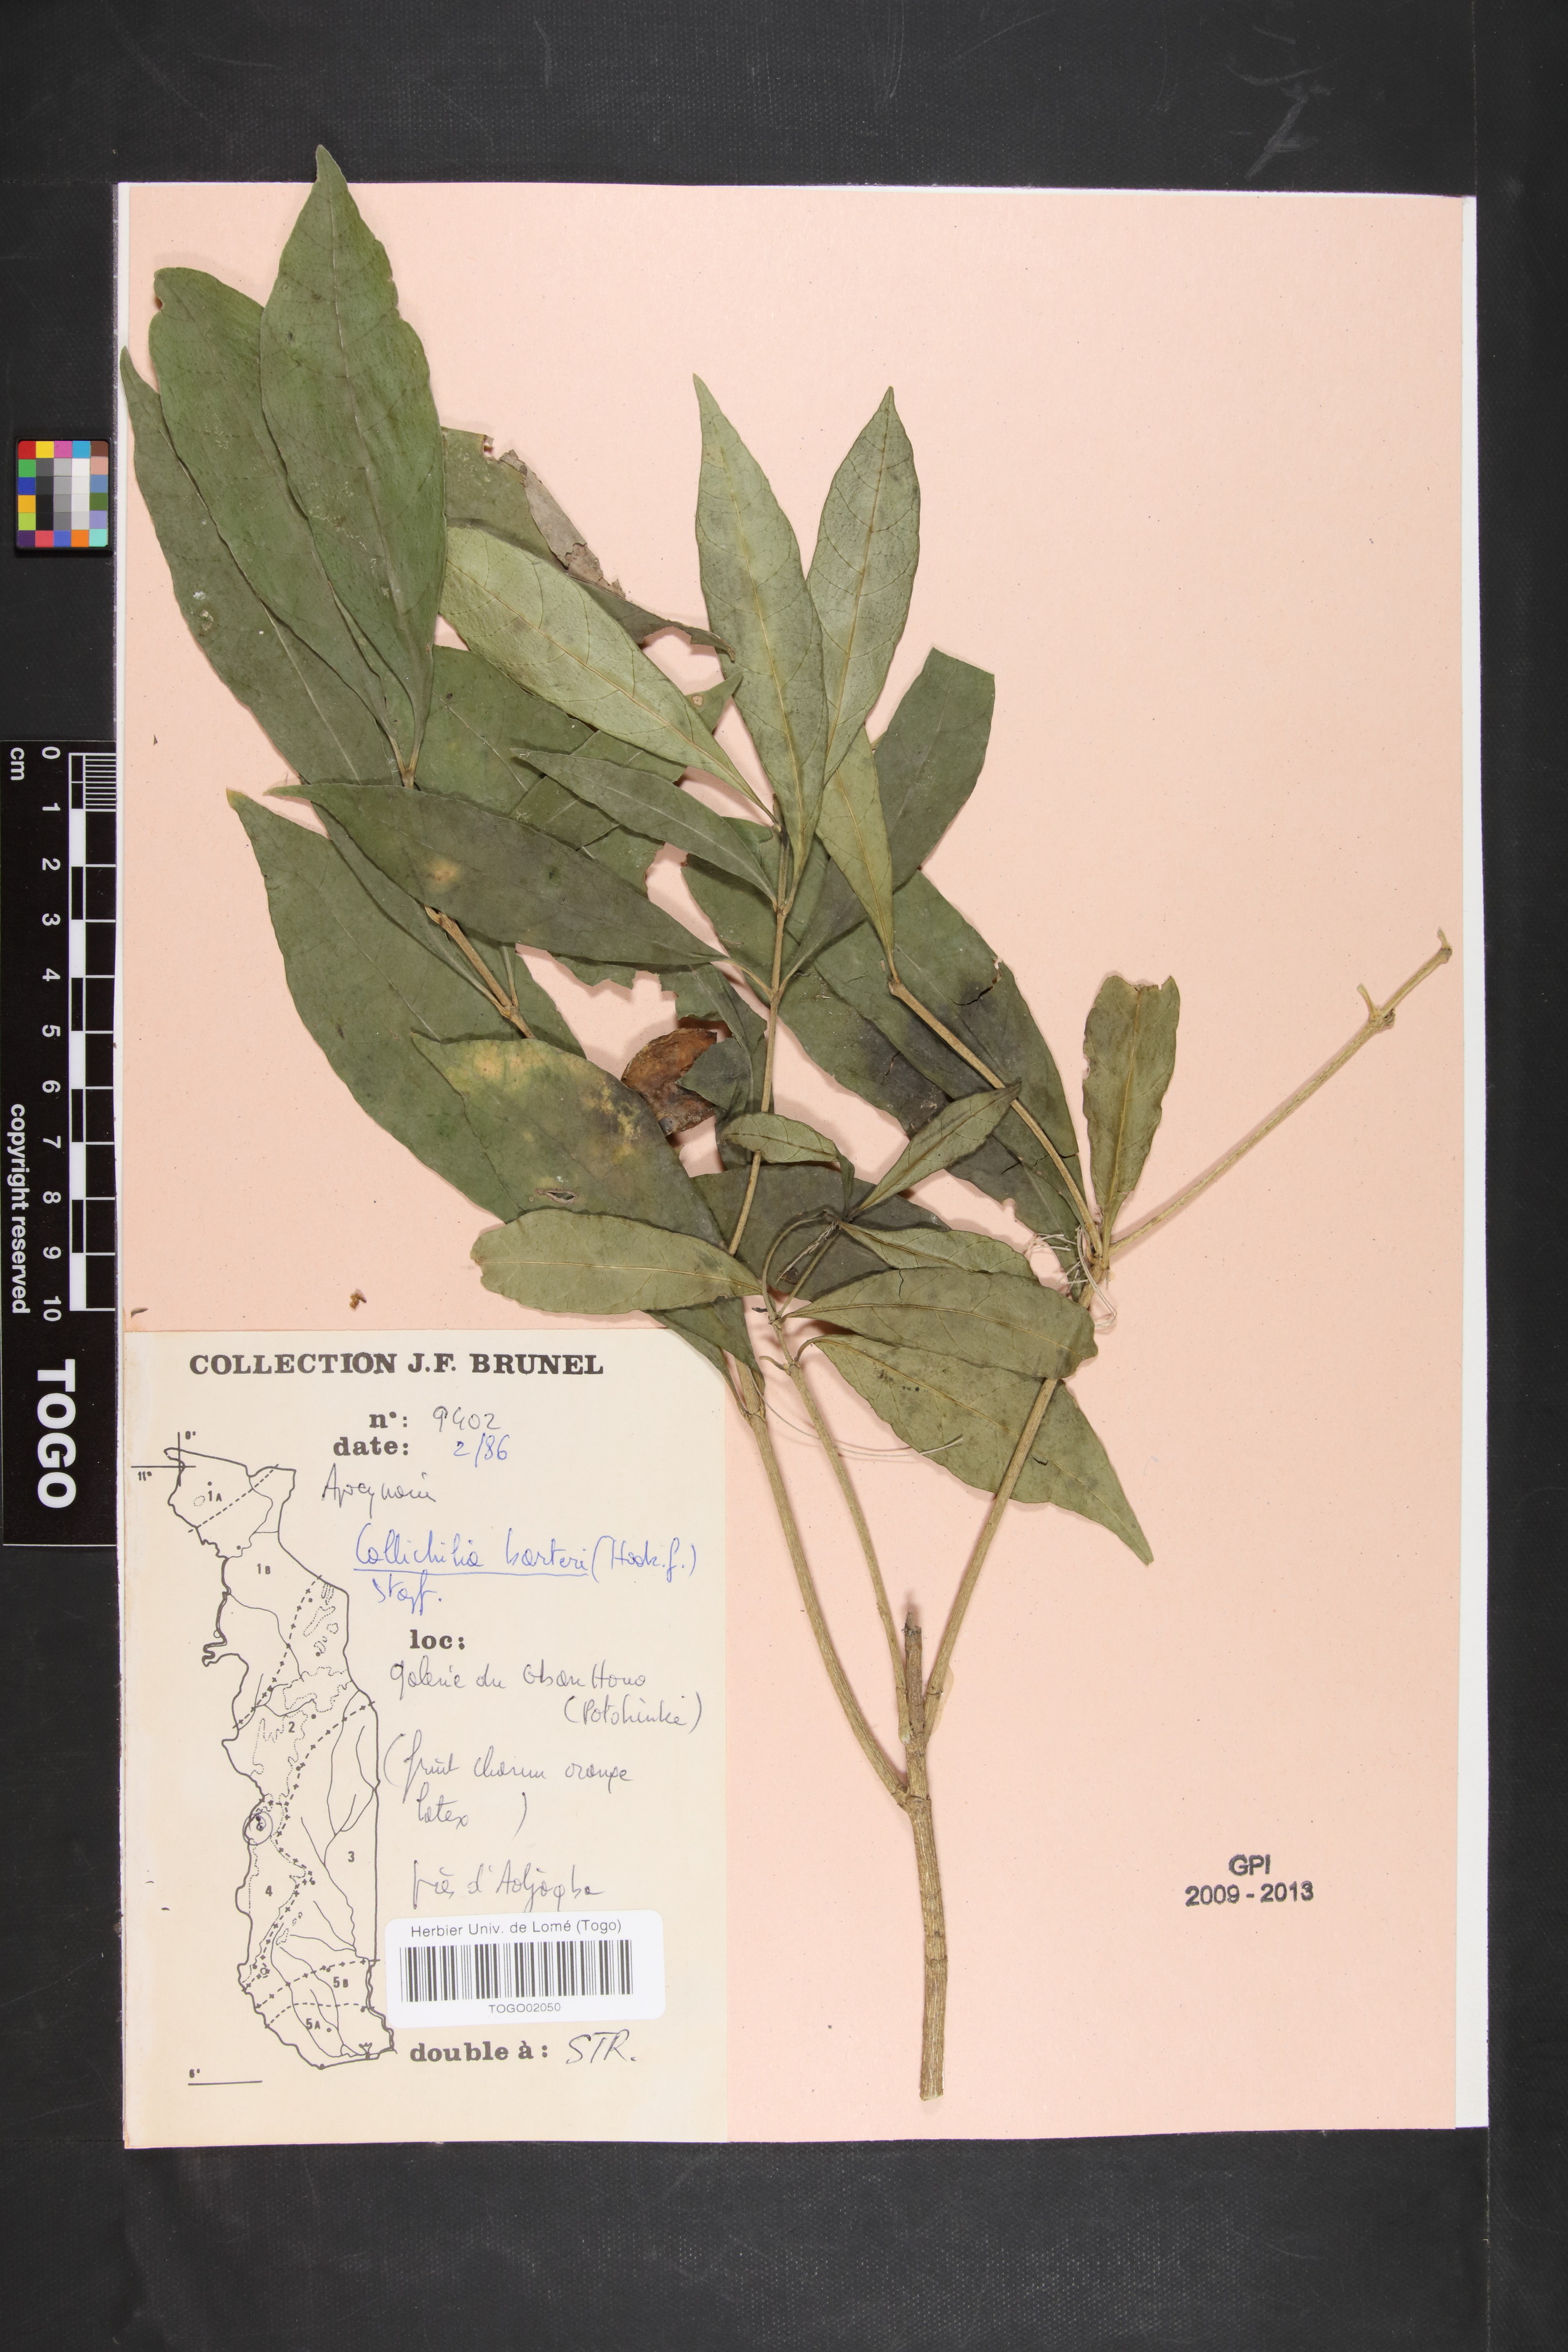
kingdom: Plantae
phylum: Tracheophyta
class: Magnoliopsida
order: Gentianales
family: Apocynaceae
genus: Callichilia
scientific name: Callichilia barteri
